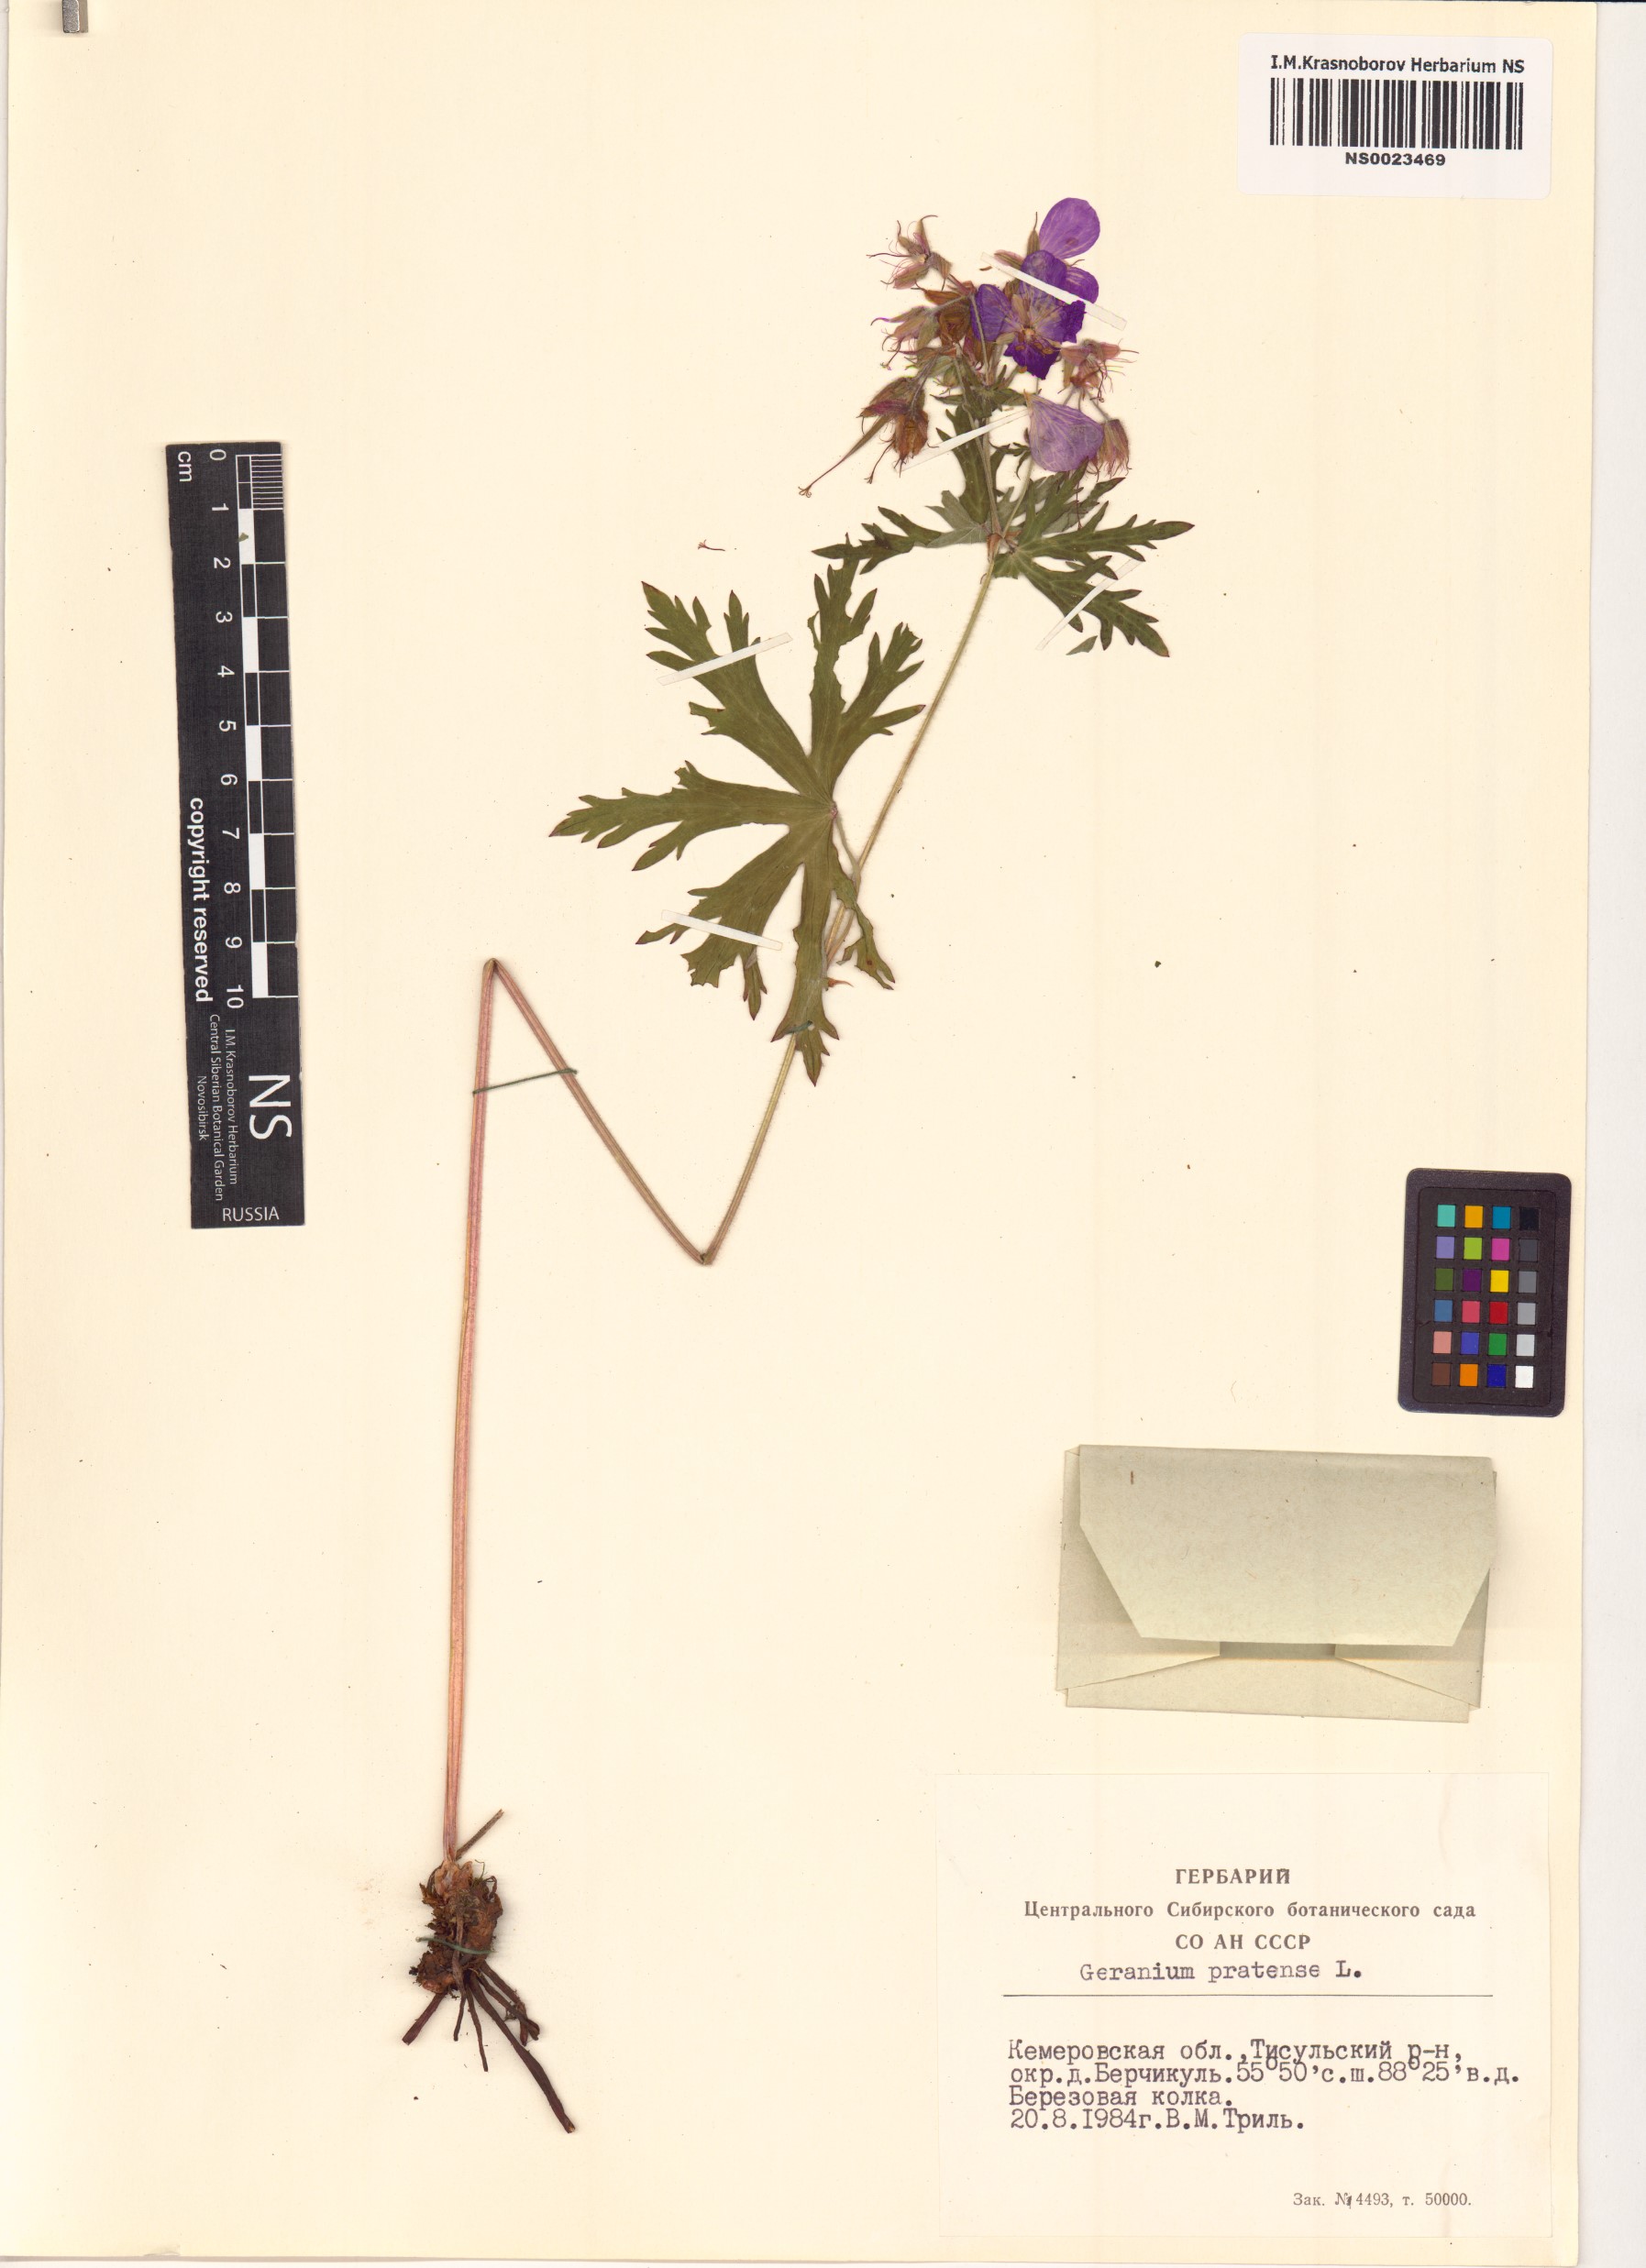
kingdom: Plantae
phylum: Tracheophyta
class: Magnoliopsida
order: Geraniales
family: Geraniaceae
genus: Geranium
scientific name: Geranium pratense
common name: Meadow crane's-bill
